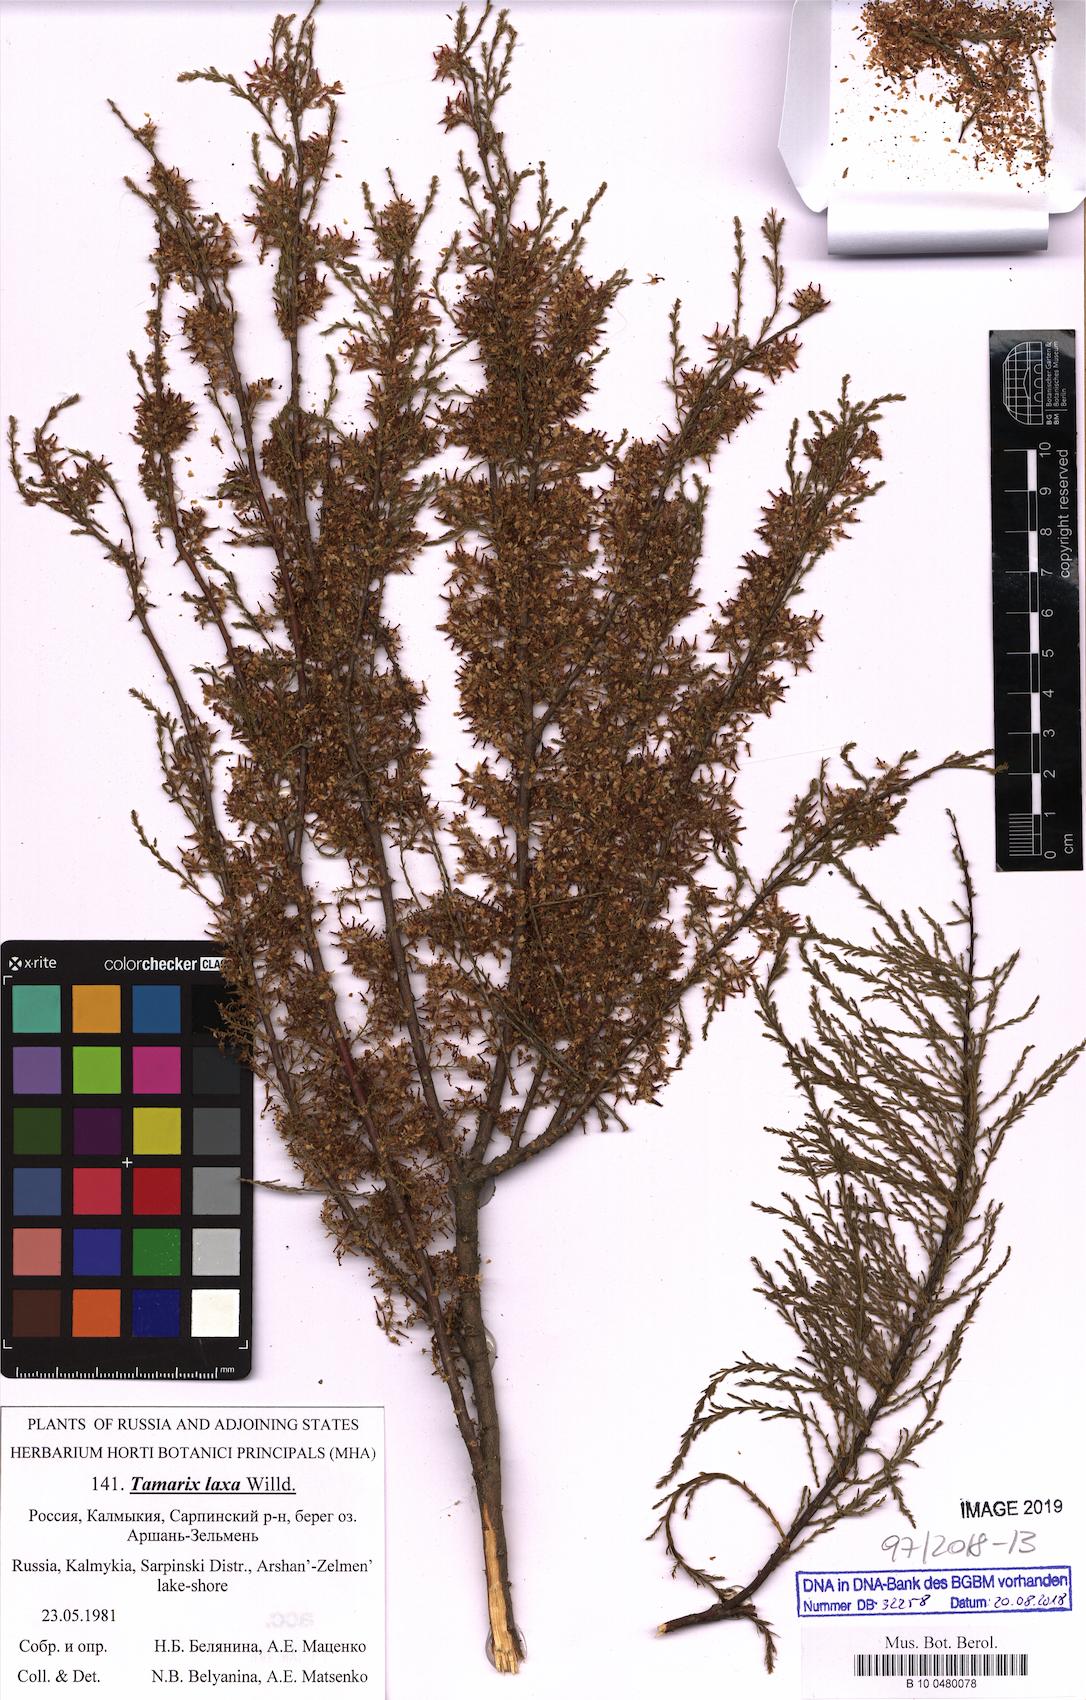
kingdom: Plantae
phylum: Tracheophyta
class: Magnoliopsida
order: Caryophyllales
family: Tamaricaceae
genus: Tamarix
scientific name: Tamarix laxa
